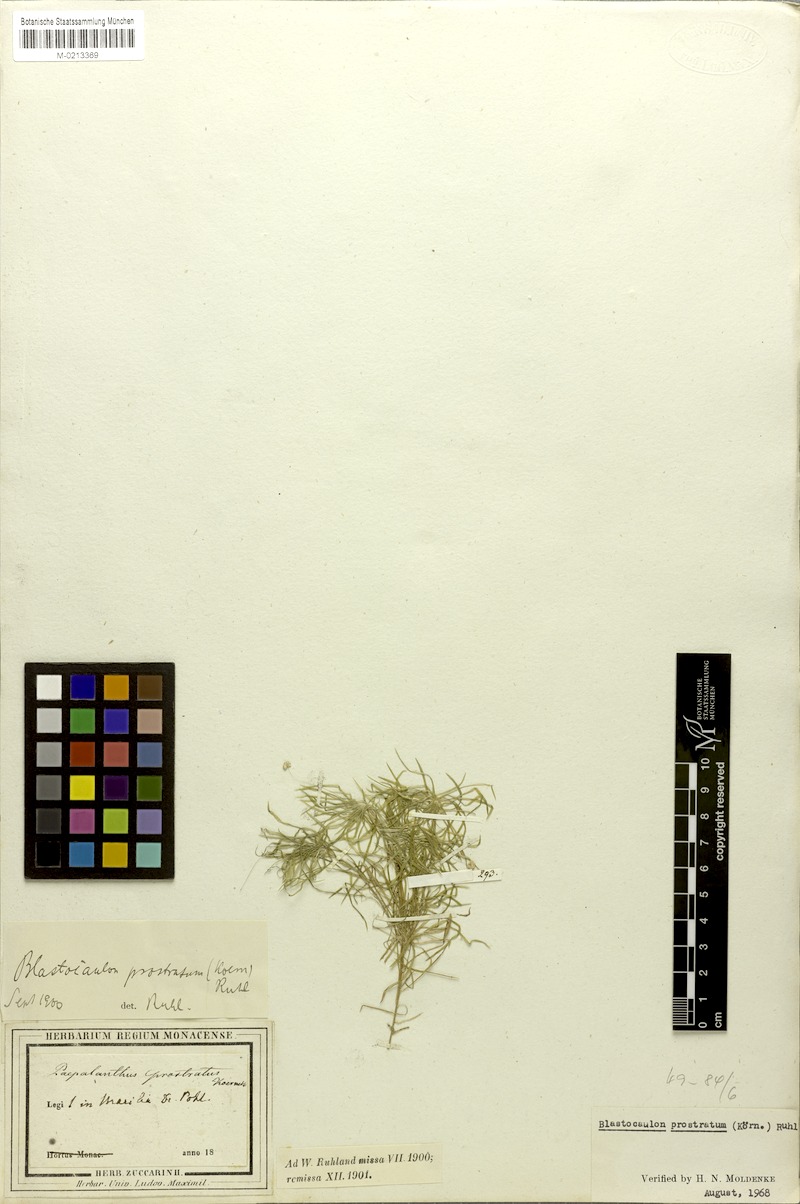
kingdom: Plantae
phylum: Tracheophyta
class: Liliopsida
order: Poales
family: Eriocaulaceae
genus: Paepalanthus
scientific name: Paepalanthus prostratus
